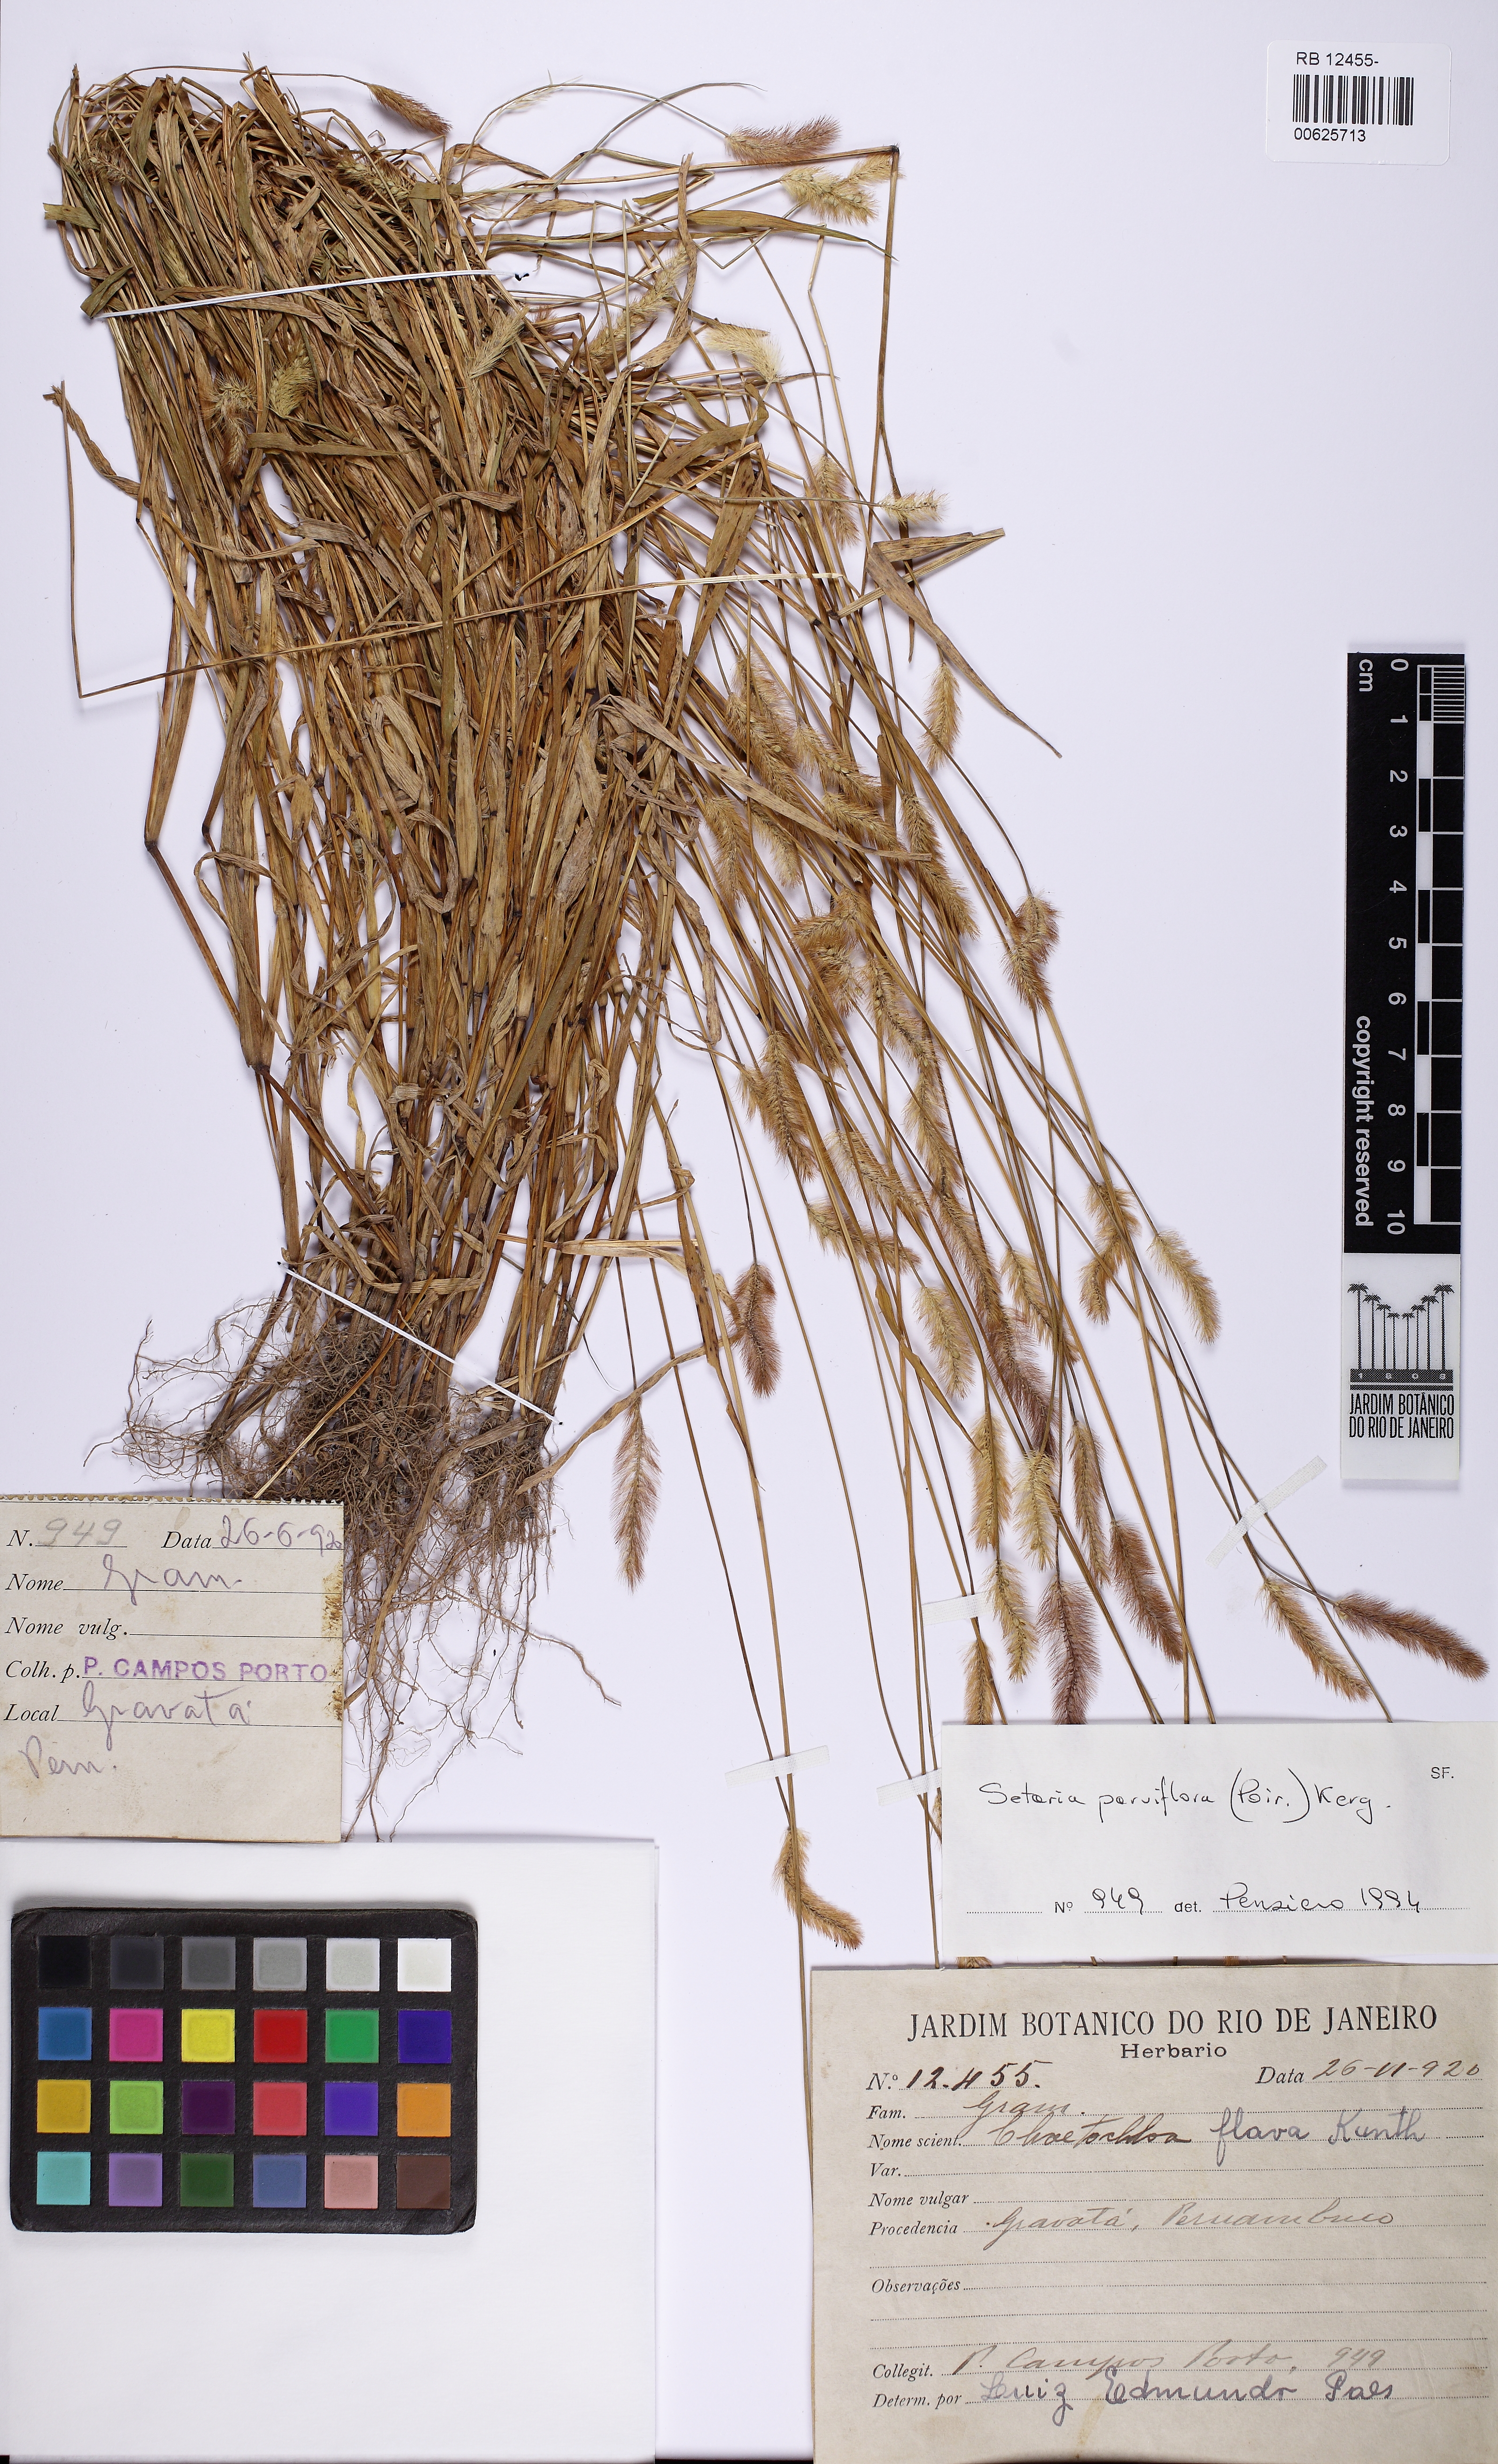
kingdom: Plantae
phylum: Tracheophyta
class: Liliopsida
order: Poales
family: Poaceae
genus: Setaria
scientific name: Setaria parviflora
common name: Knotroot bristle-grass
